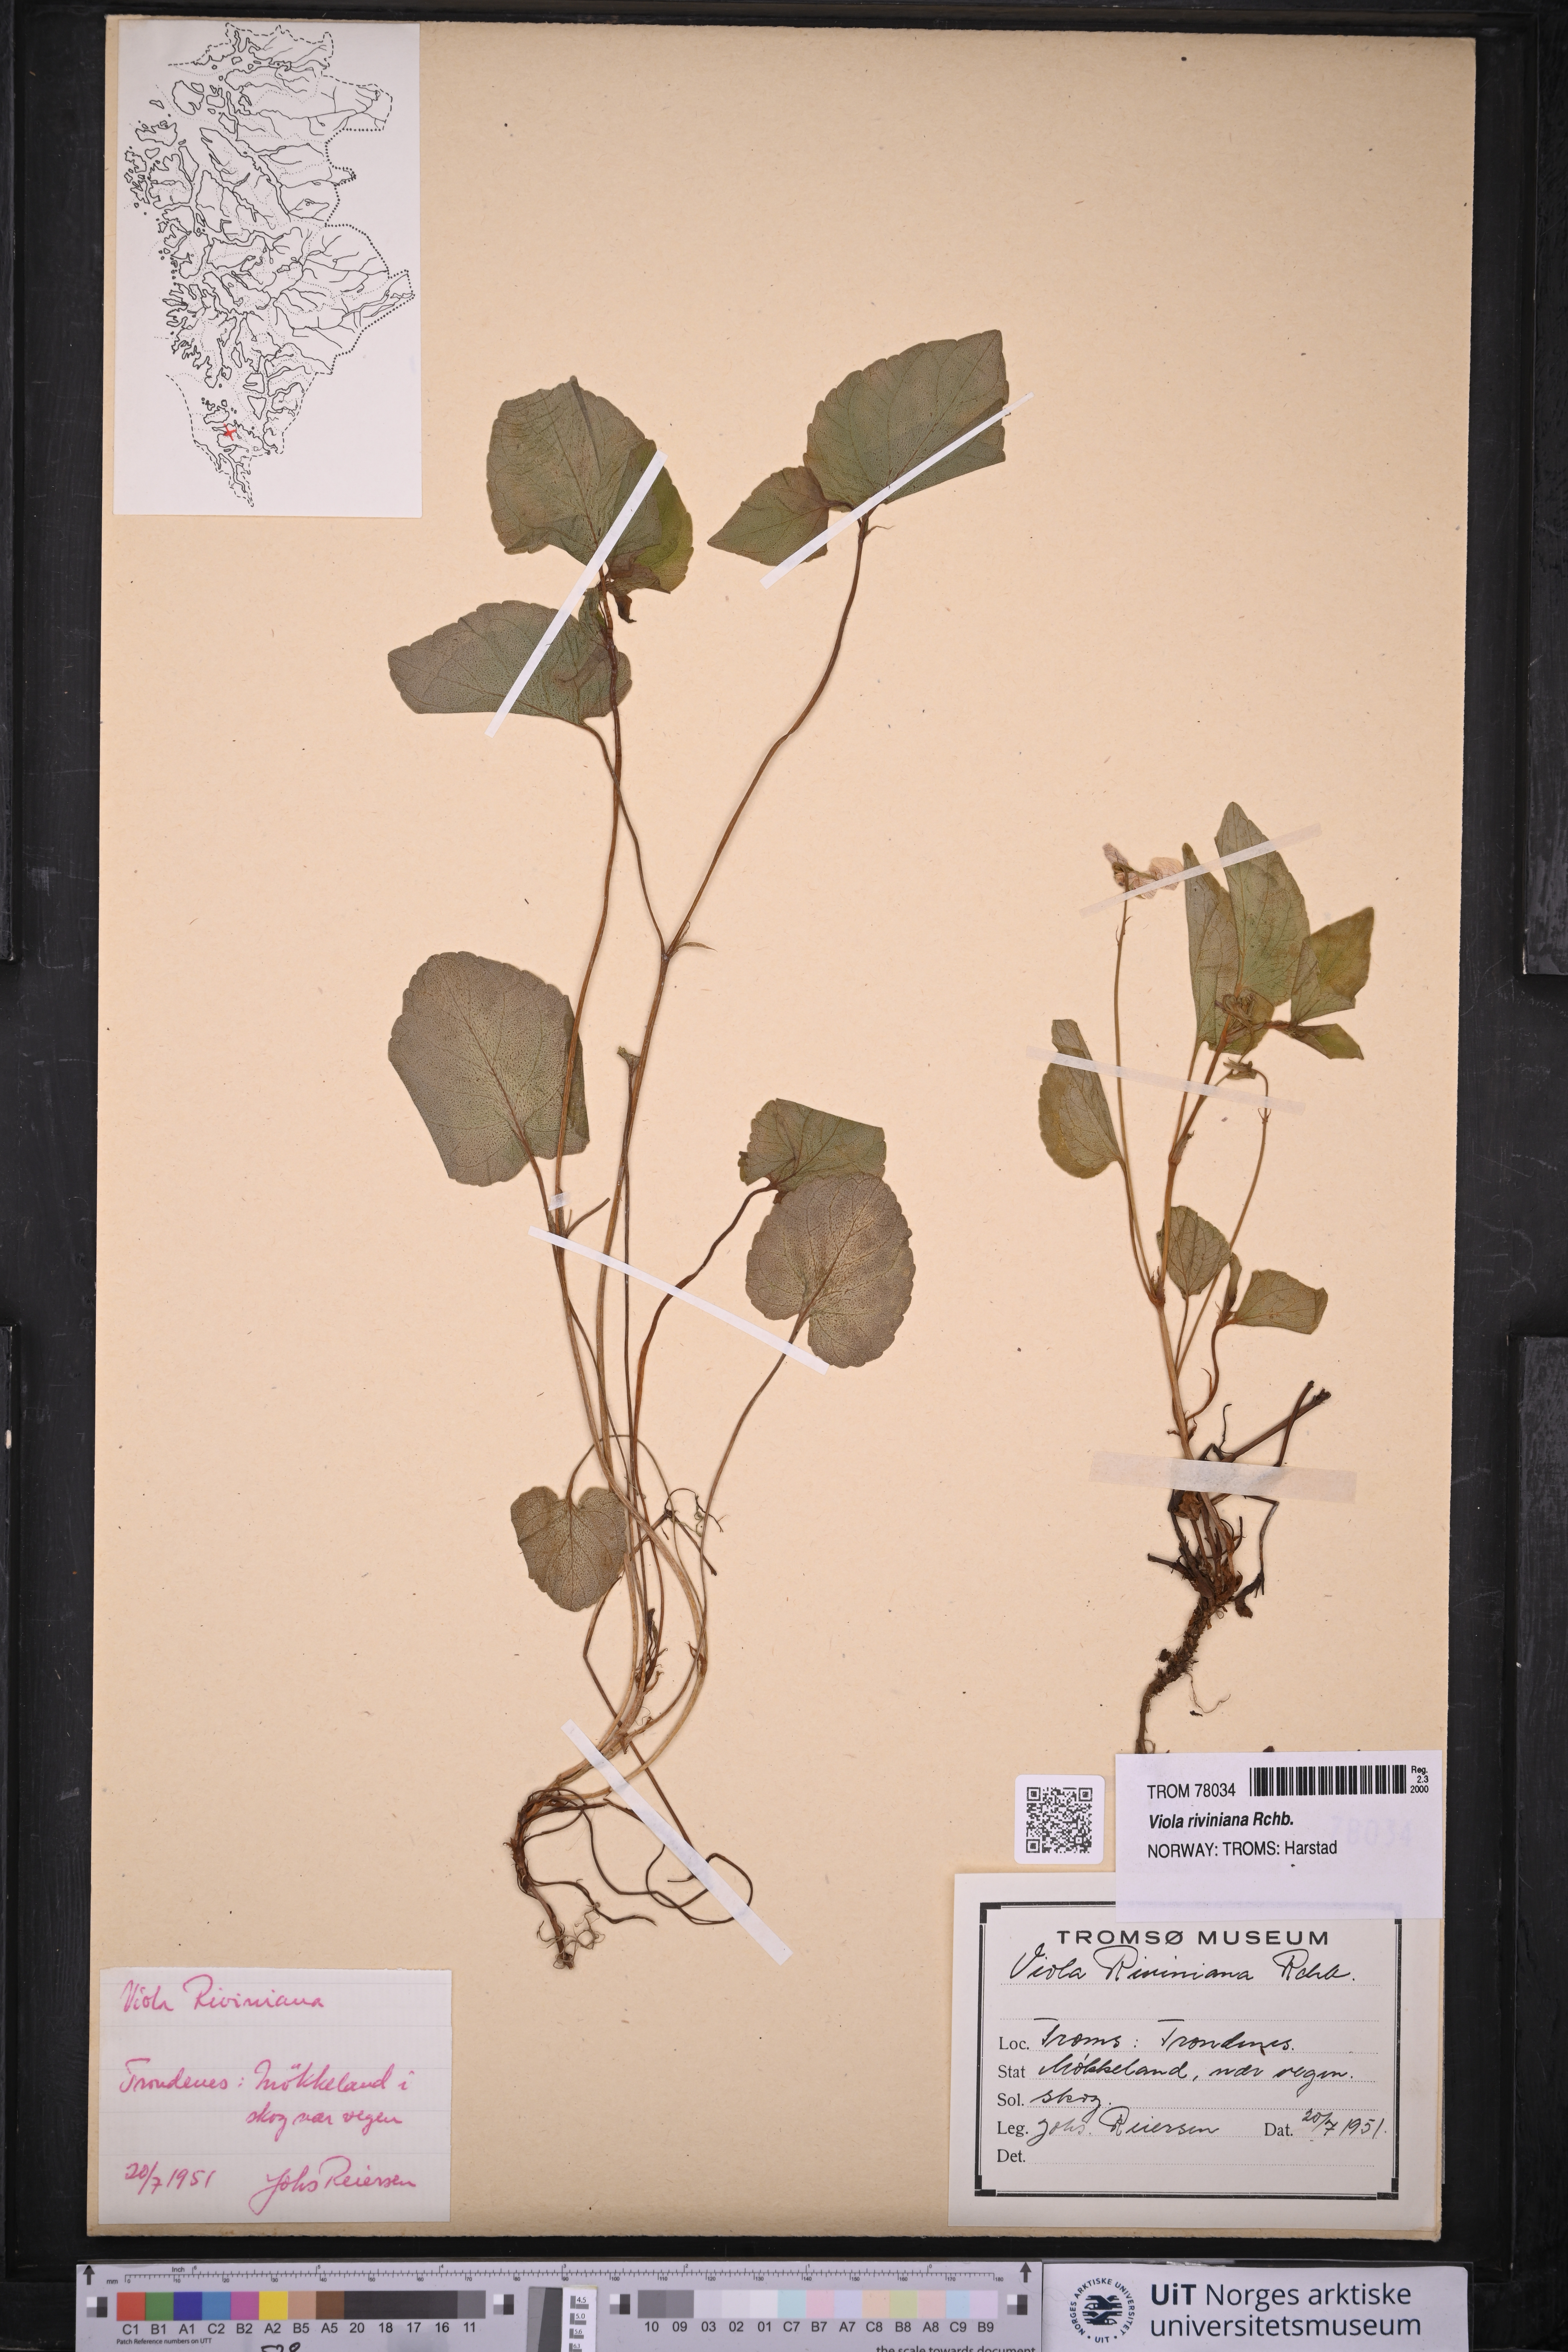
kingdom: Plantae
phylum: Tracheophyta
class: Magnoliopsida
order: Malpighiales
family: Violaceae
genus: Viola
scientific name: Viola riviniana
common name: Common dog-violet
